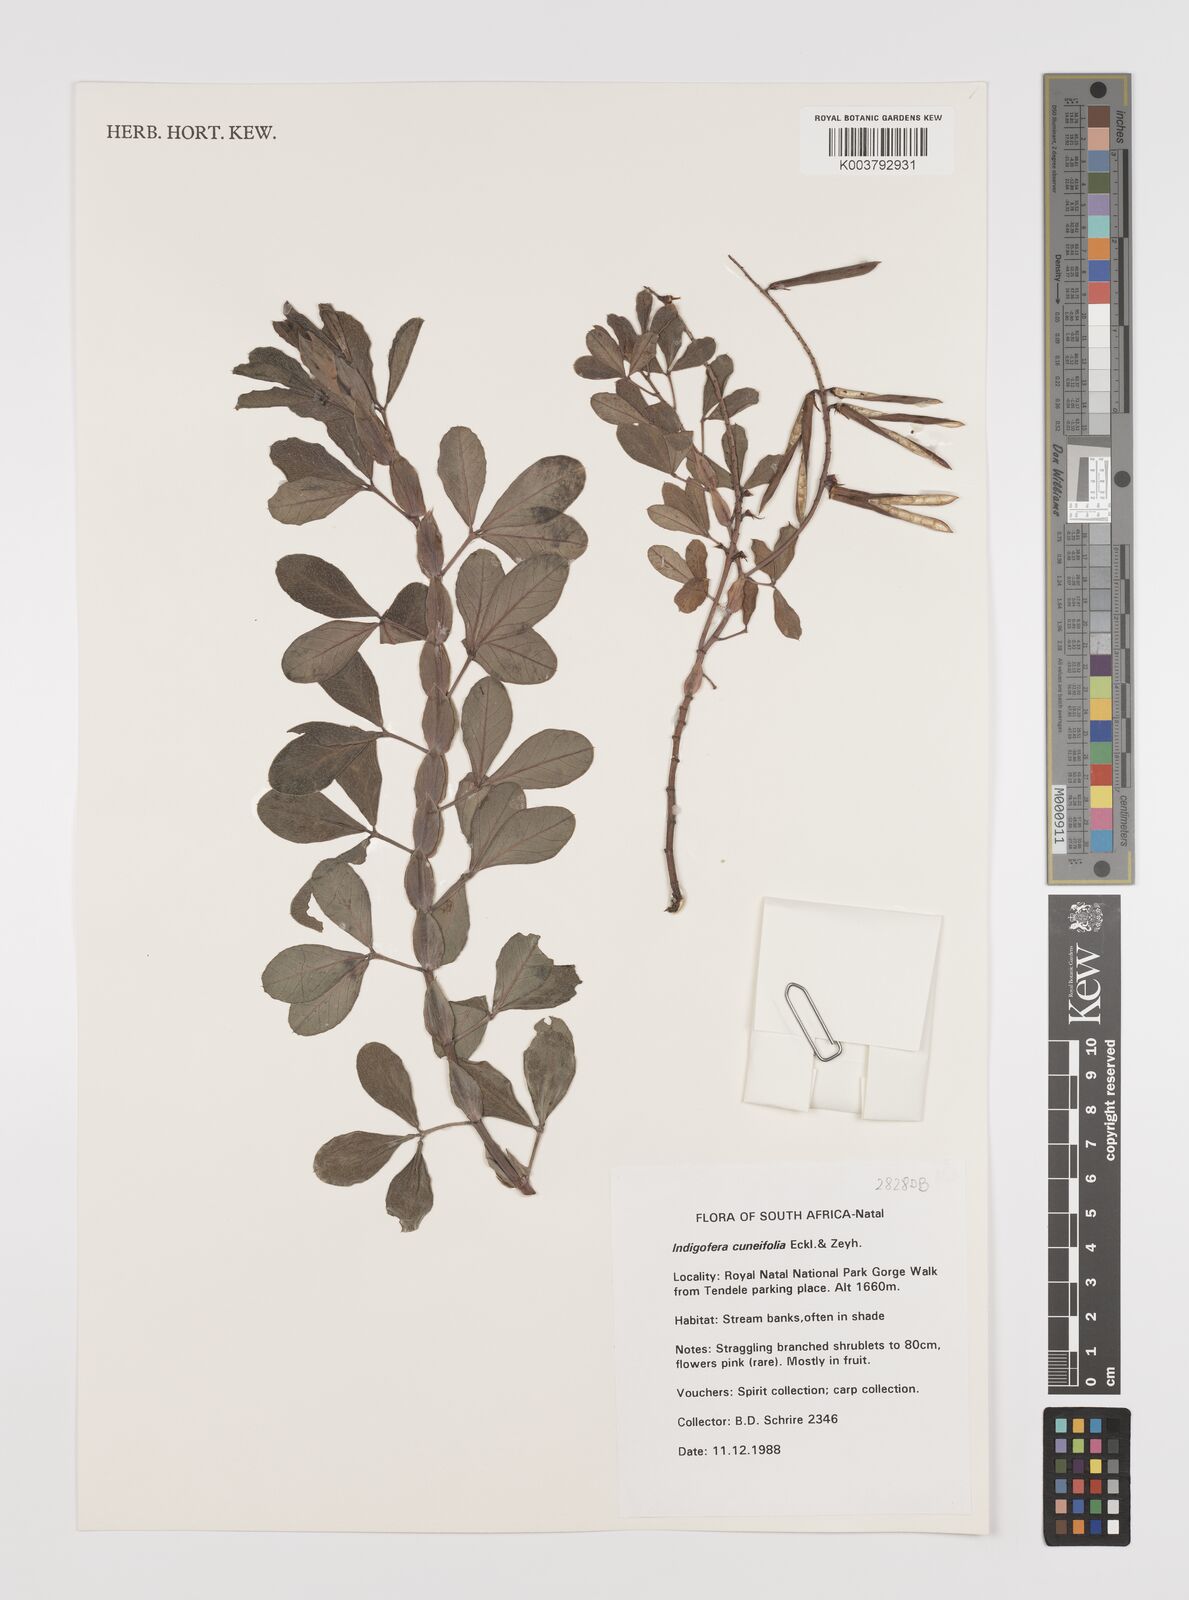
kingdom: Plantae
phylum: Tracheophyta
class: Magnoliopsida
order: Fabales
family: Fabaceae
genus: Indigofera
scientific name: Indigofera cuneifolia
